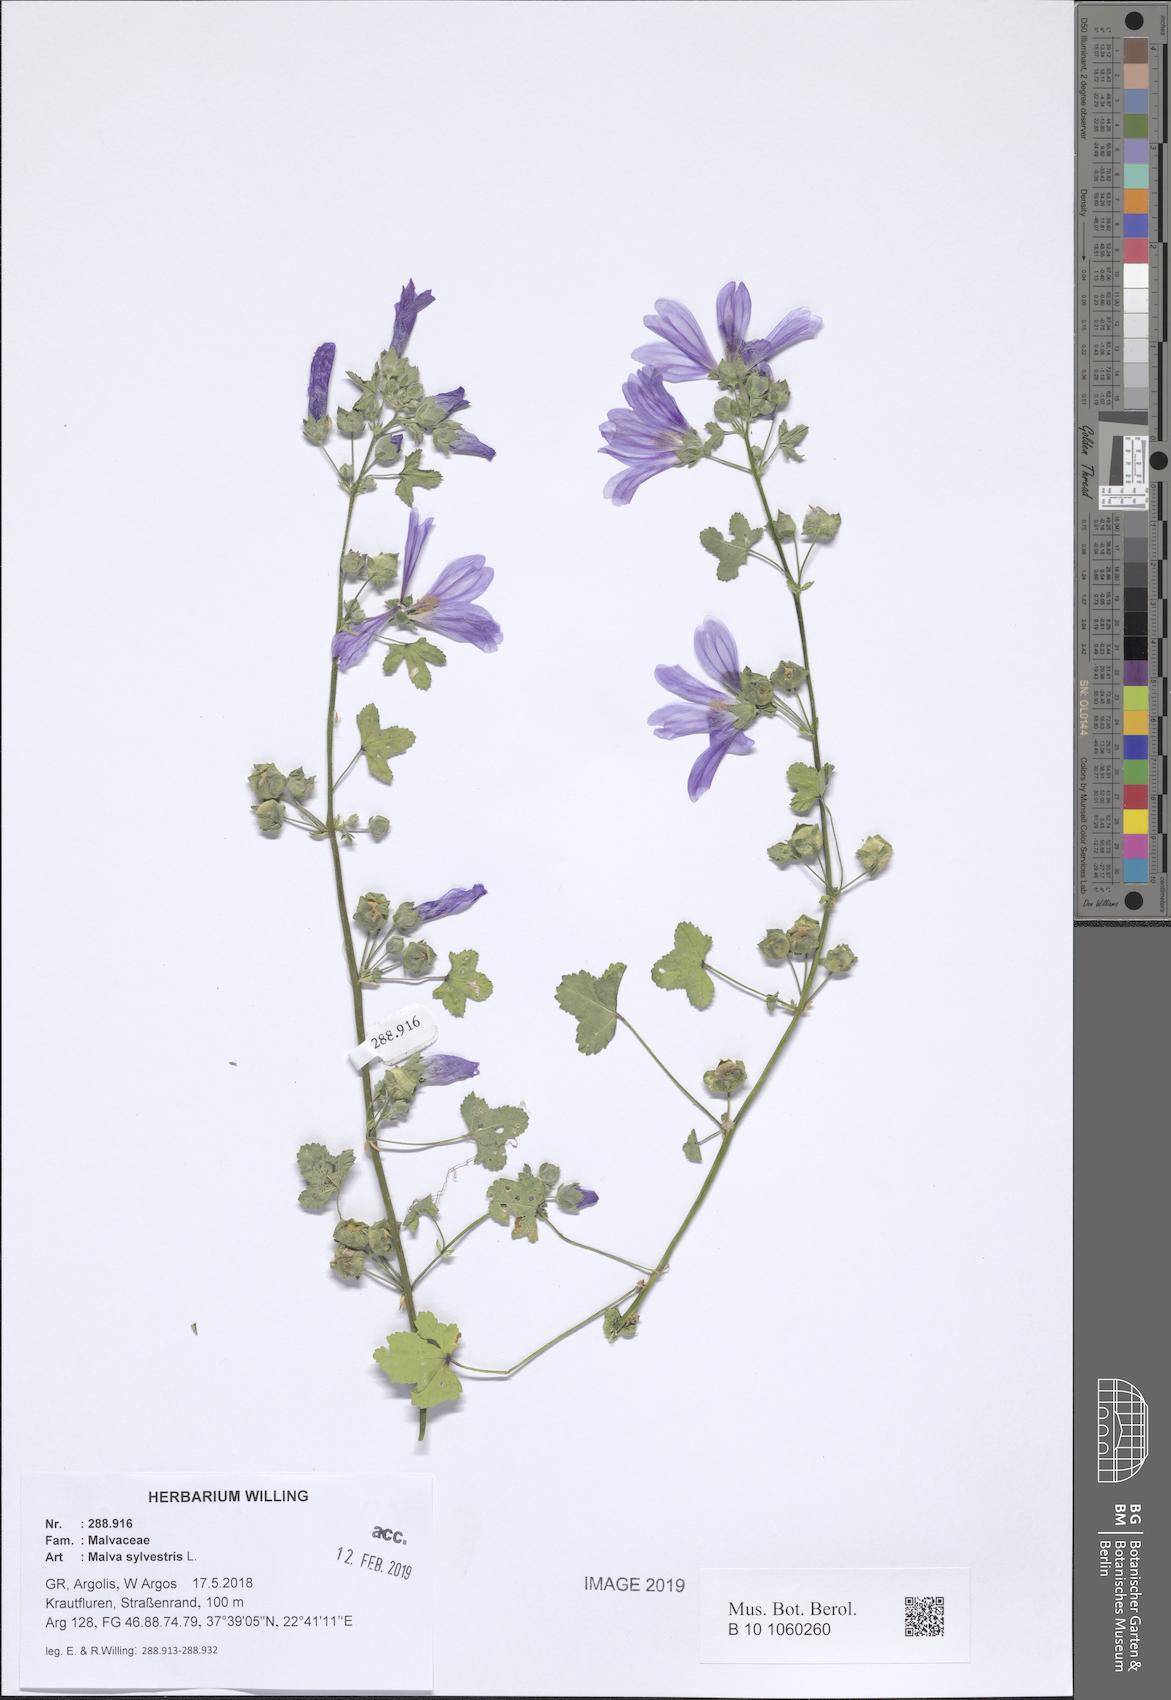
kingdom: Plantae
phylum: Tracheophyta
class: Magnoliopsida
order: Malvales
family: Malvaceae
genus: Malva
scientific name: Malva sylvestris
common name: Common mallow
